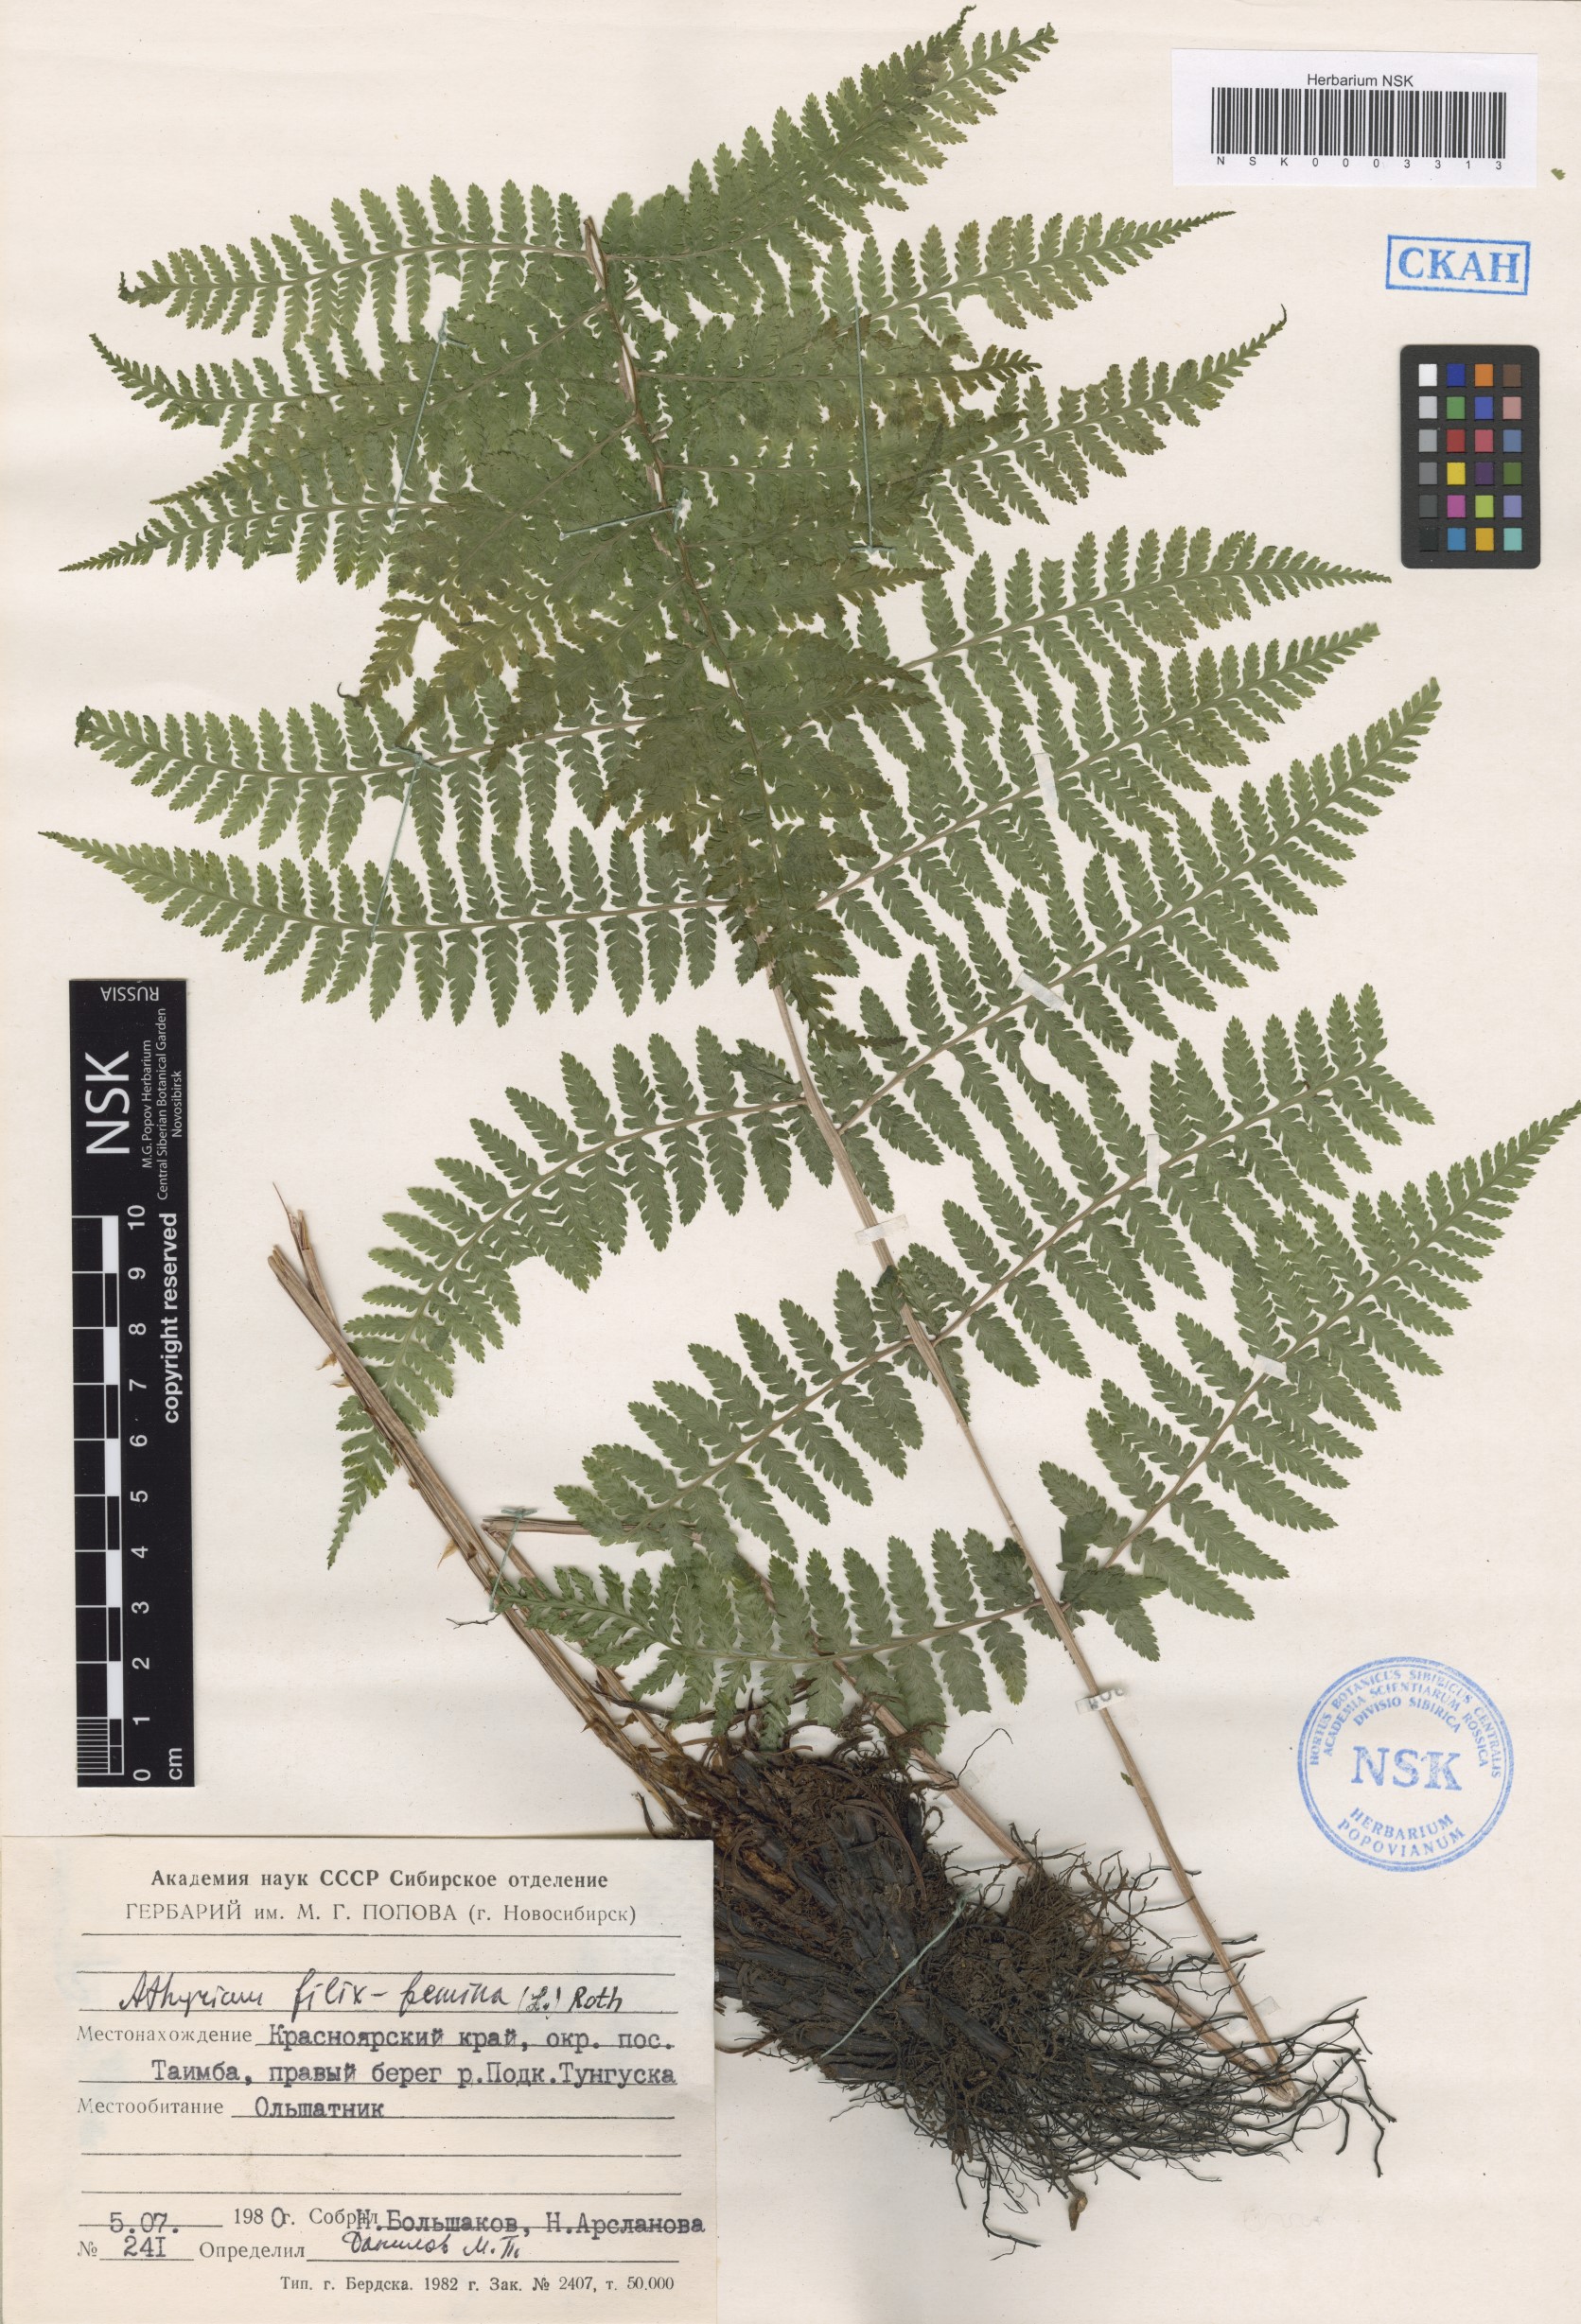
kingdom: Plantae
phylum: Tracheophyta
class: Polypodiopsida
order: Polypodiales
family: Athyriaceae
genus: Athyrium
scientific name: Athyrium filix-femina
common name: Lady fern
